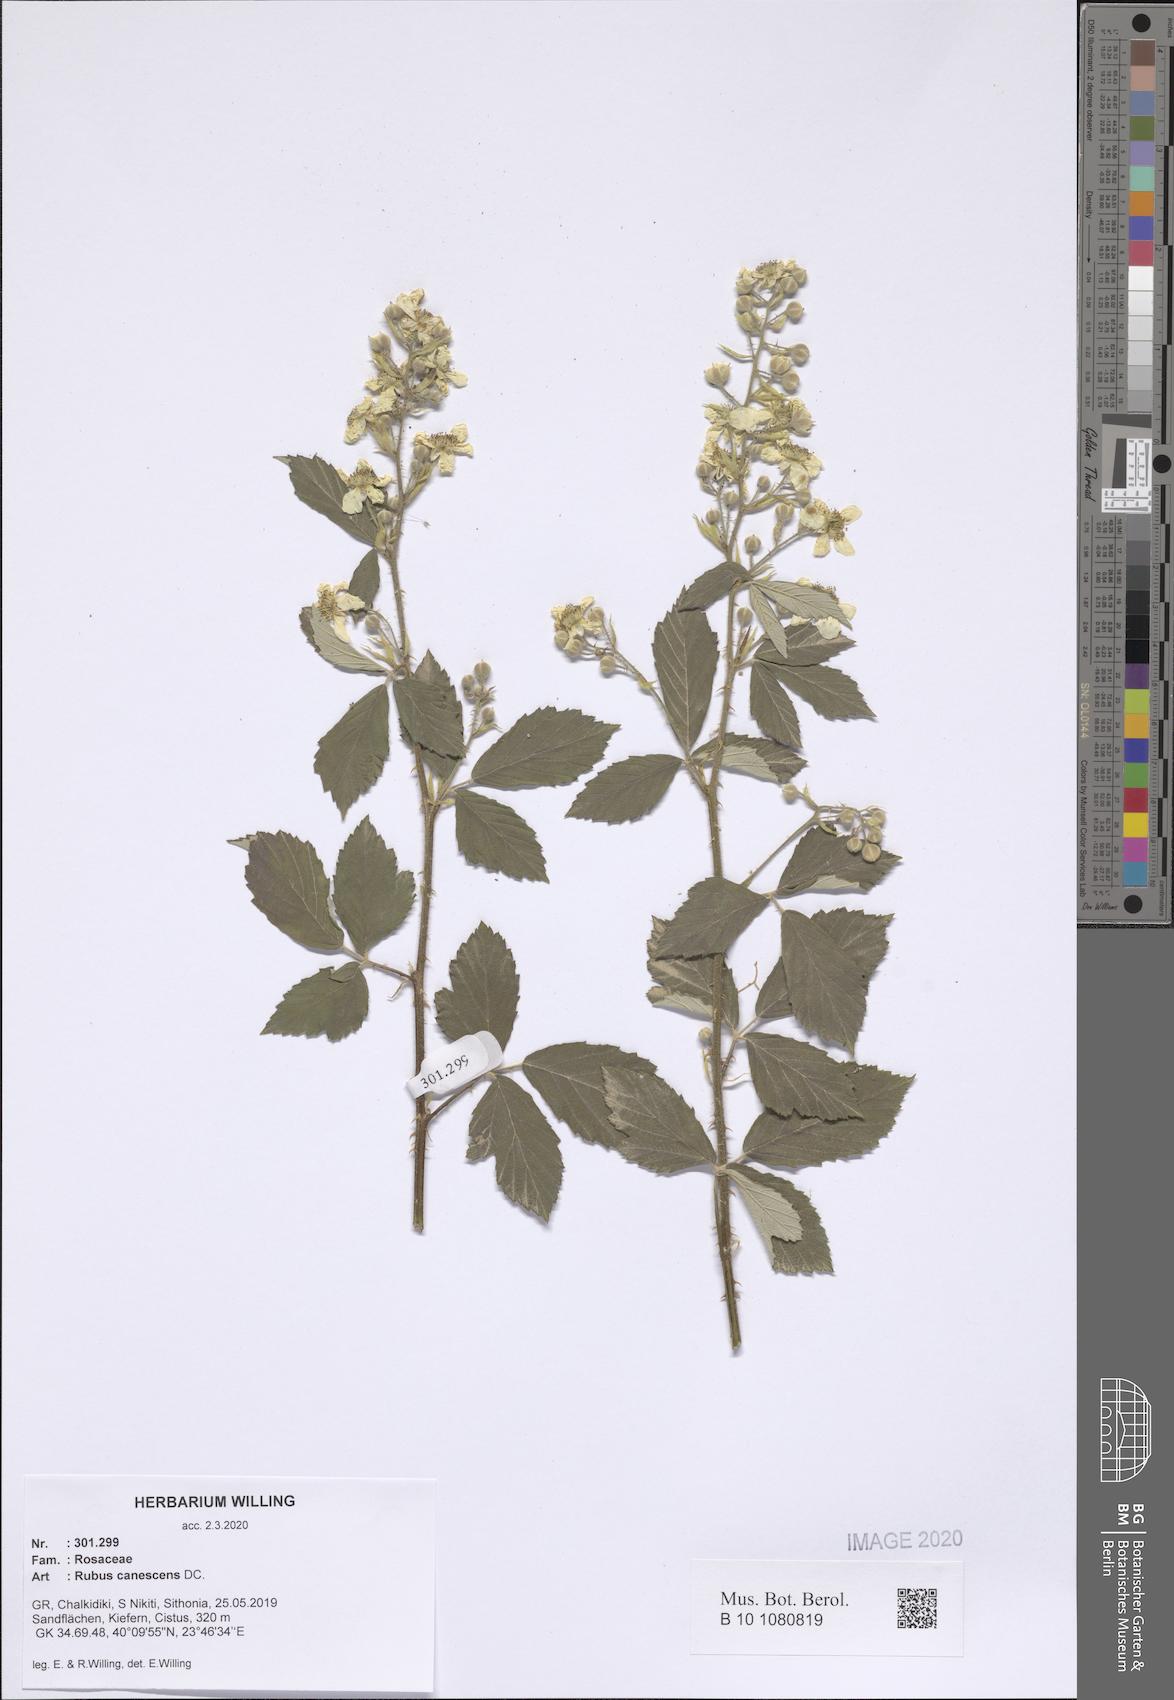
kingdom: Plantae
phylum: Tracheophyta
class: Magnoliopsida
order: Rosales
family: Rosaceae
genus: Rubus
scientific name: Rubus canescens
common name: Wooly blackberry
